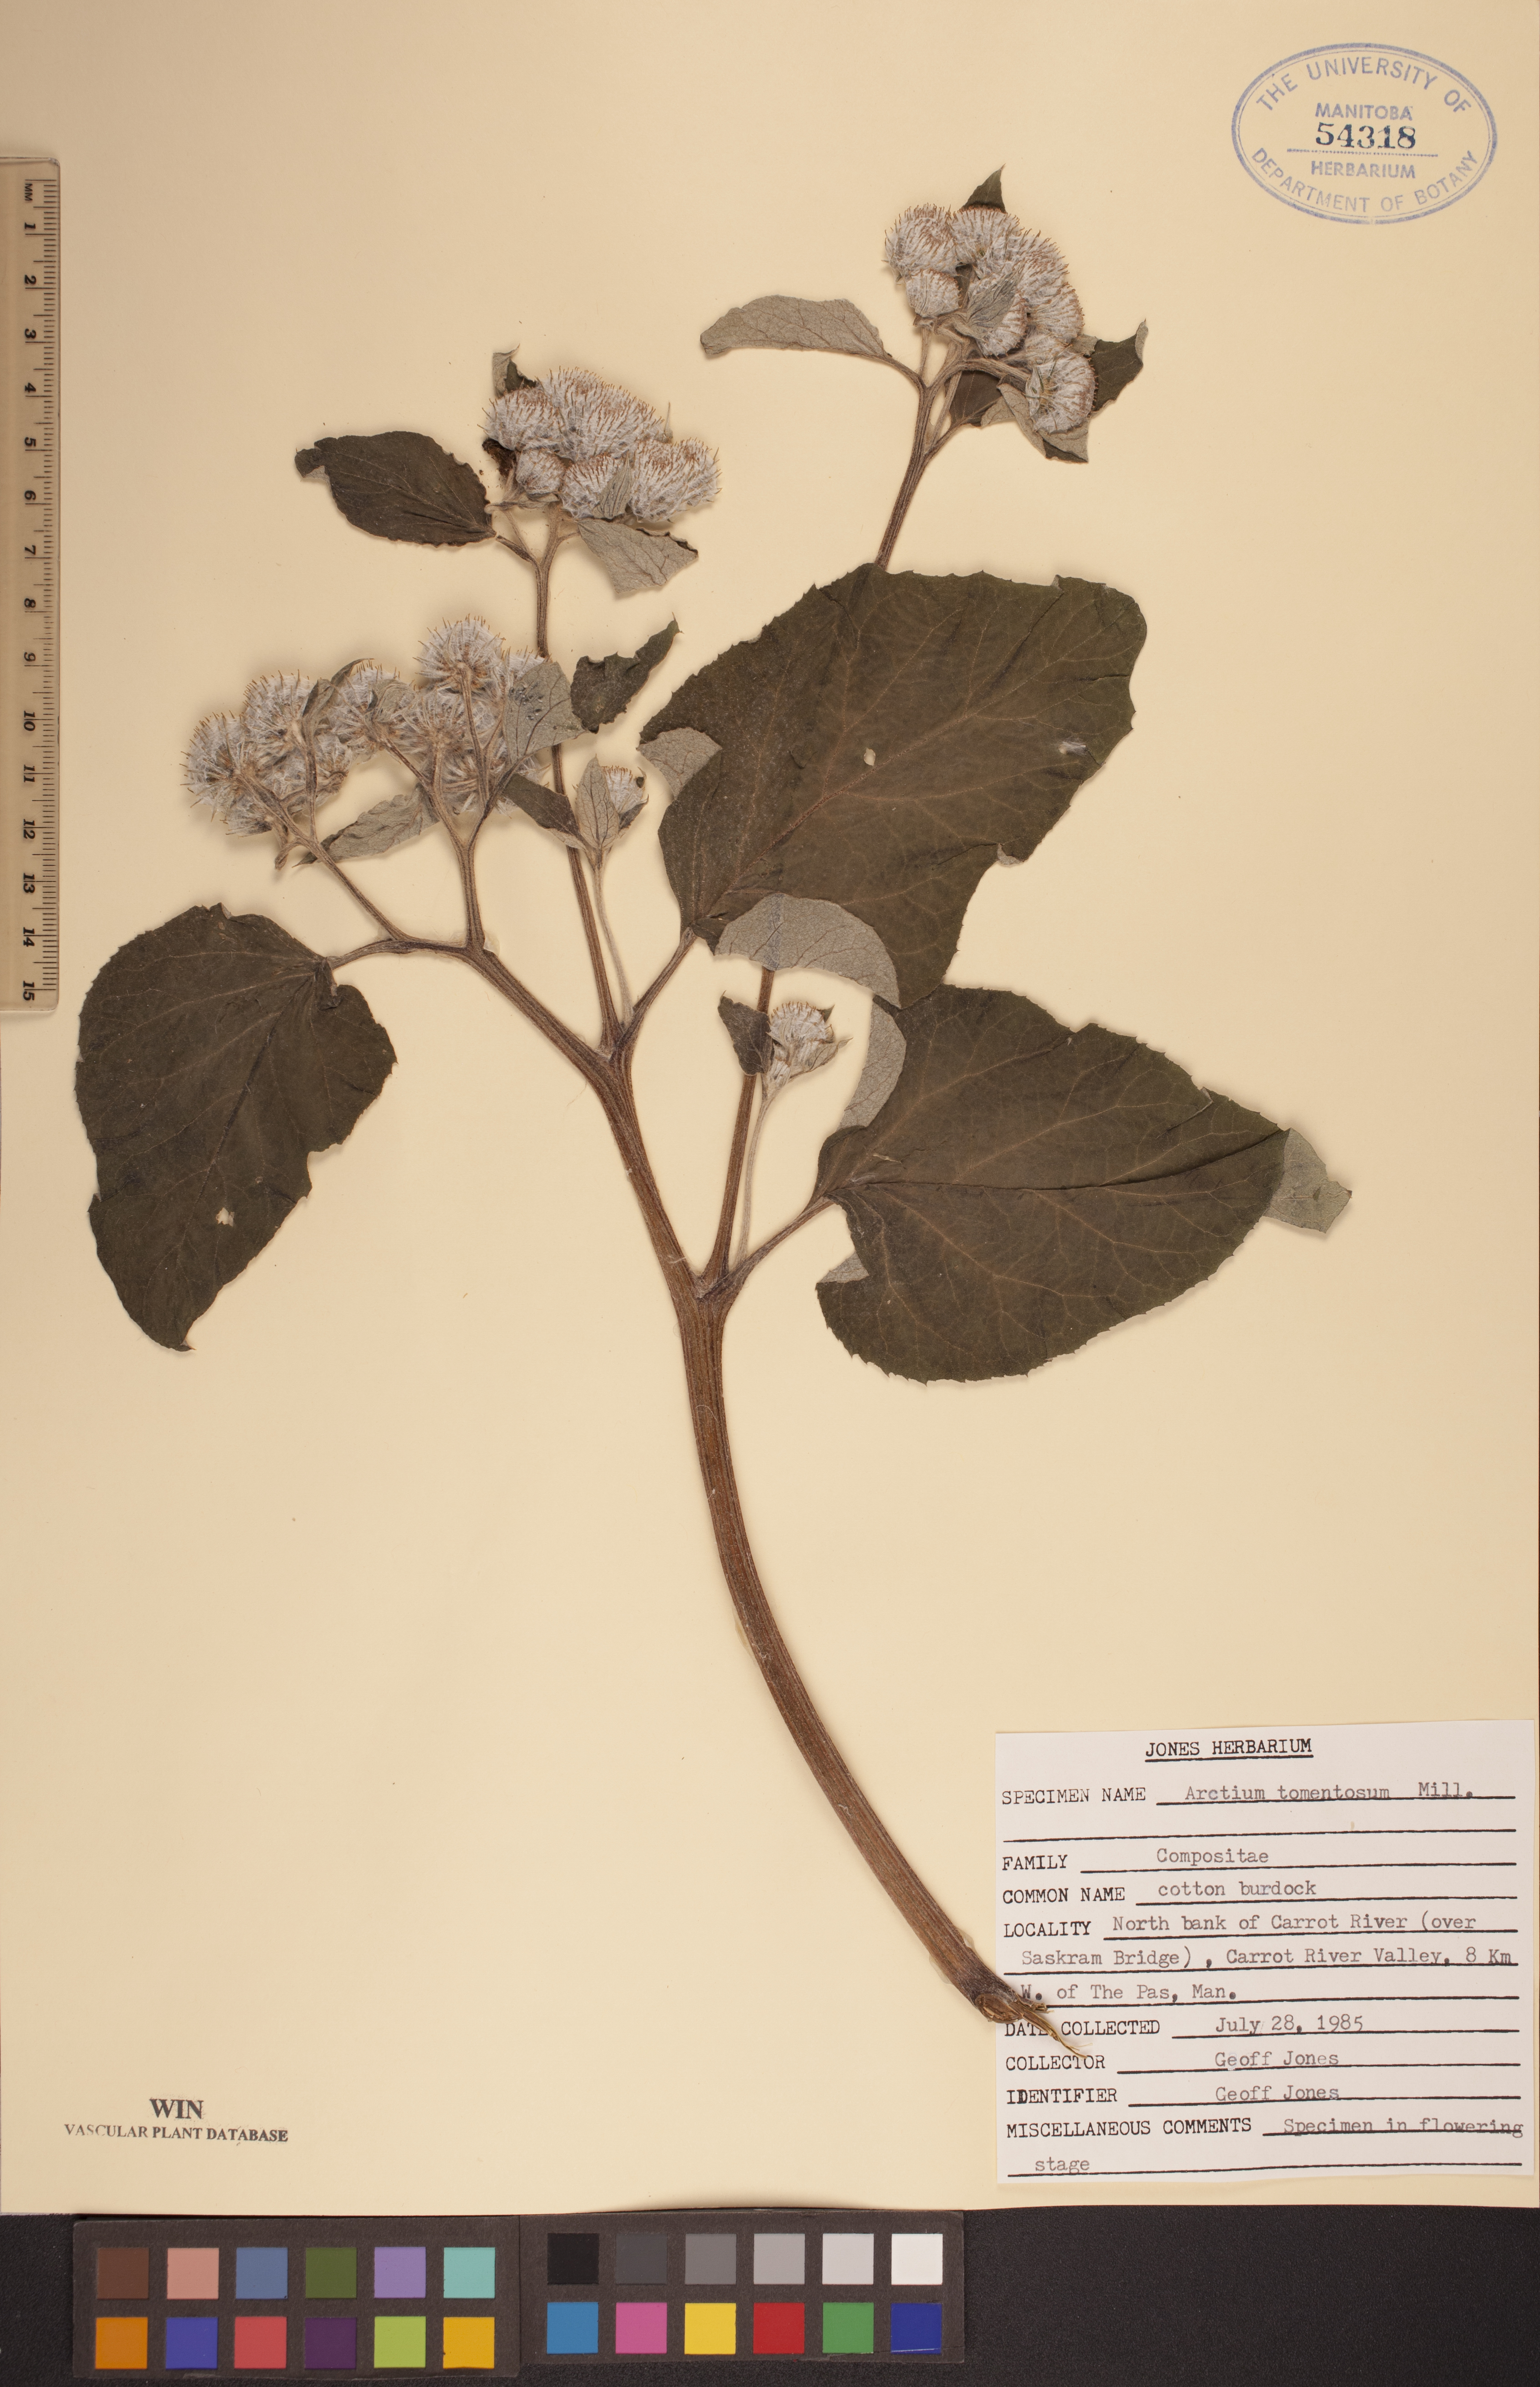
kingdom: Plantae
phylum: Tracheophyta
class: Magnoliopsida
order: Asterales
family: Asteraceae
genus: Arctium
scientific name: Arctium tomentosum
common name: Woolly burdock
